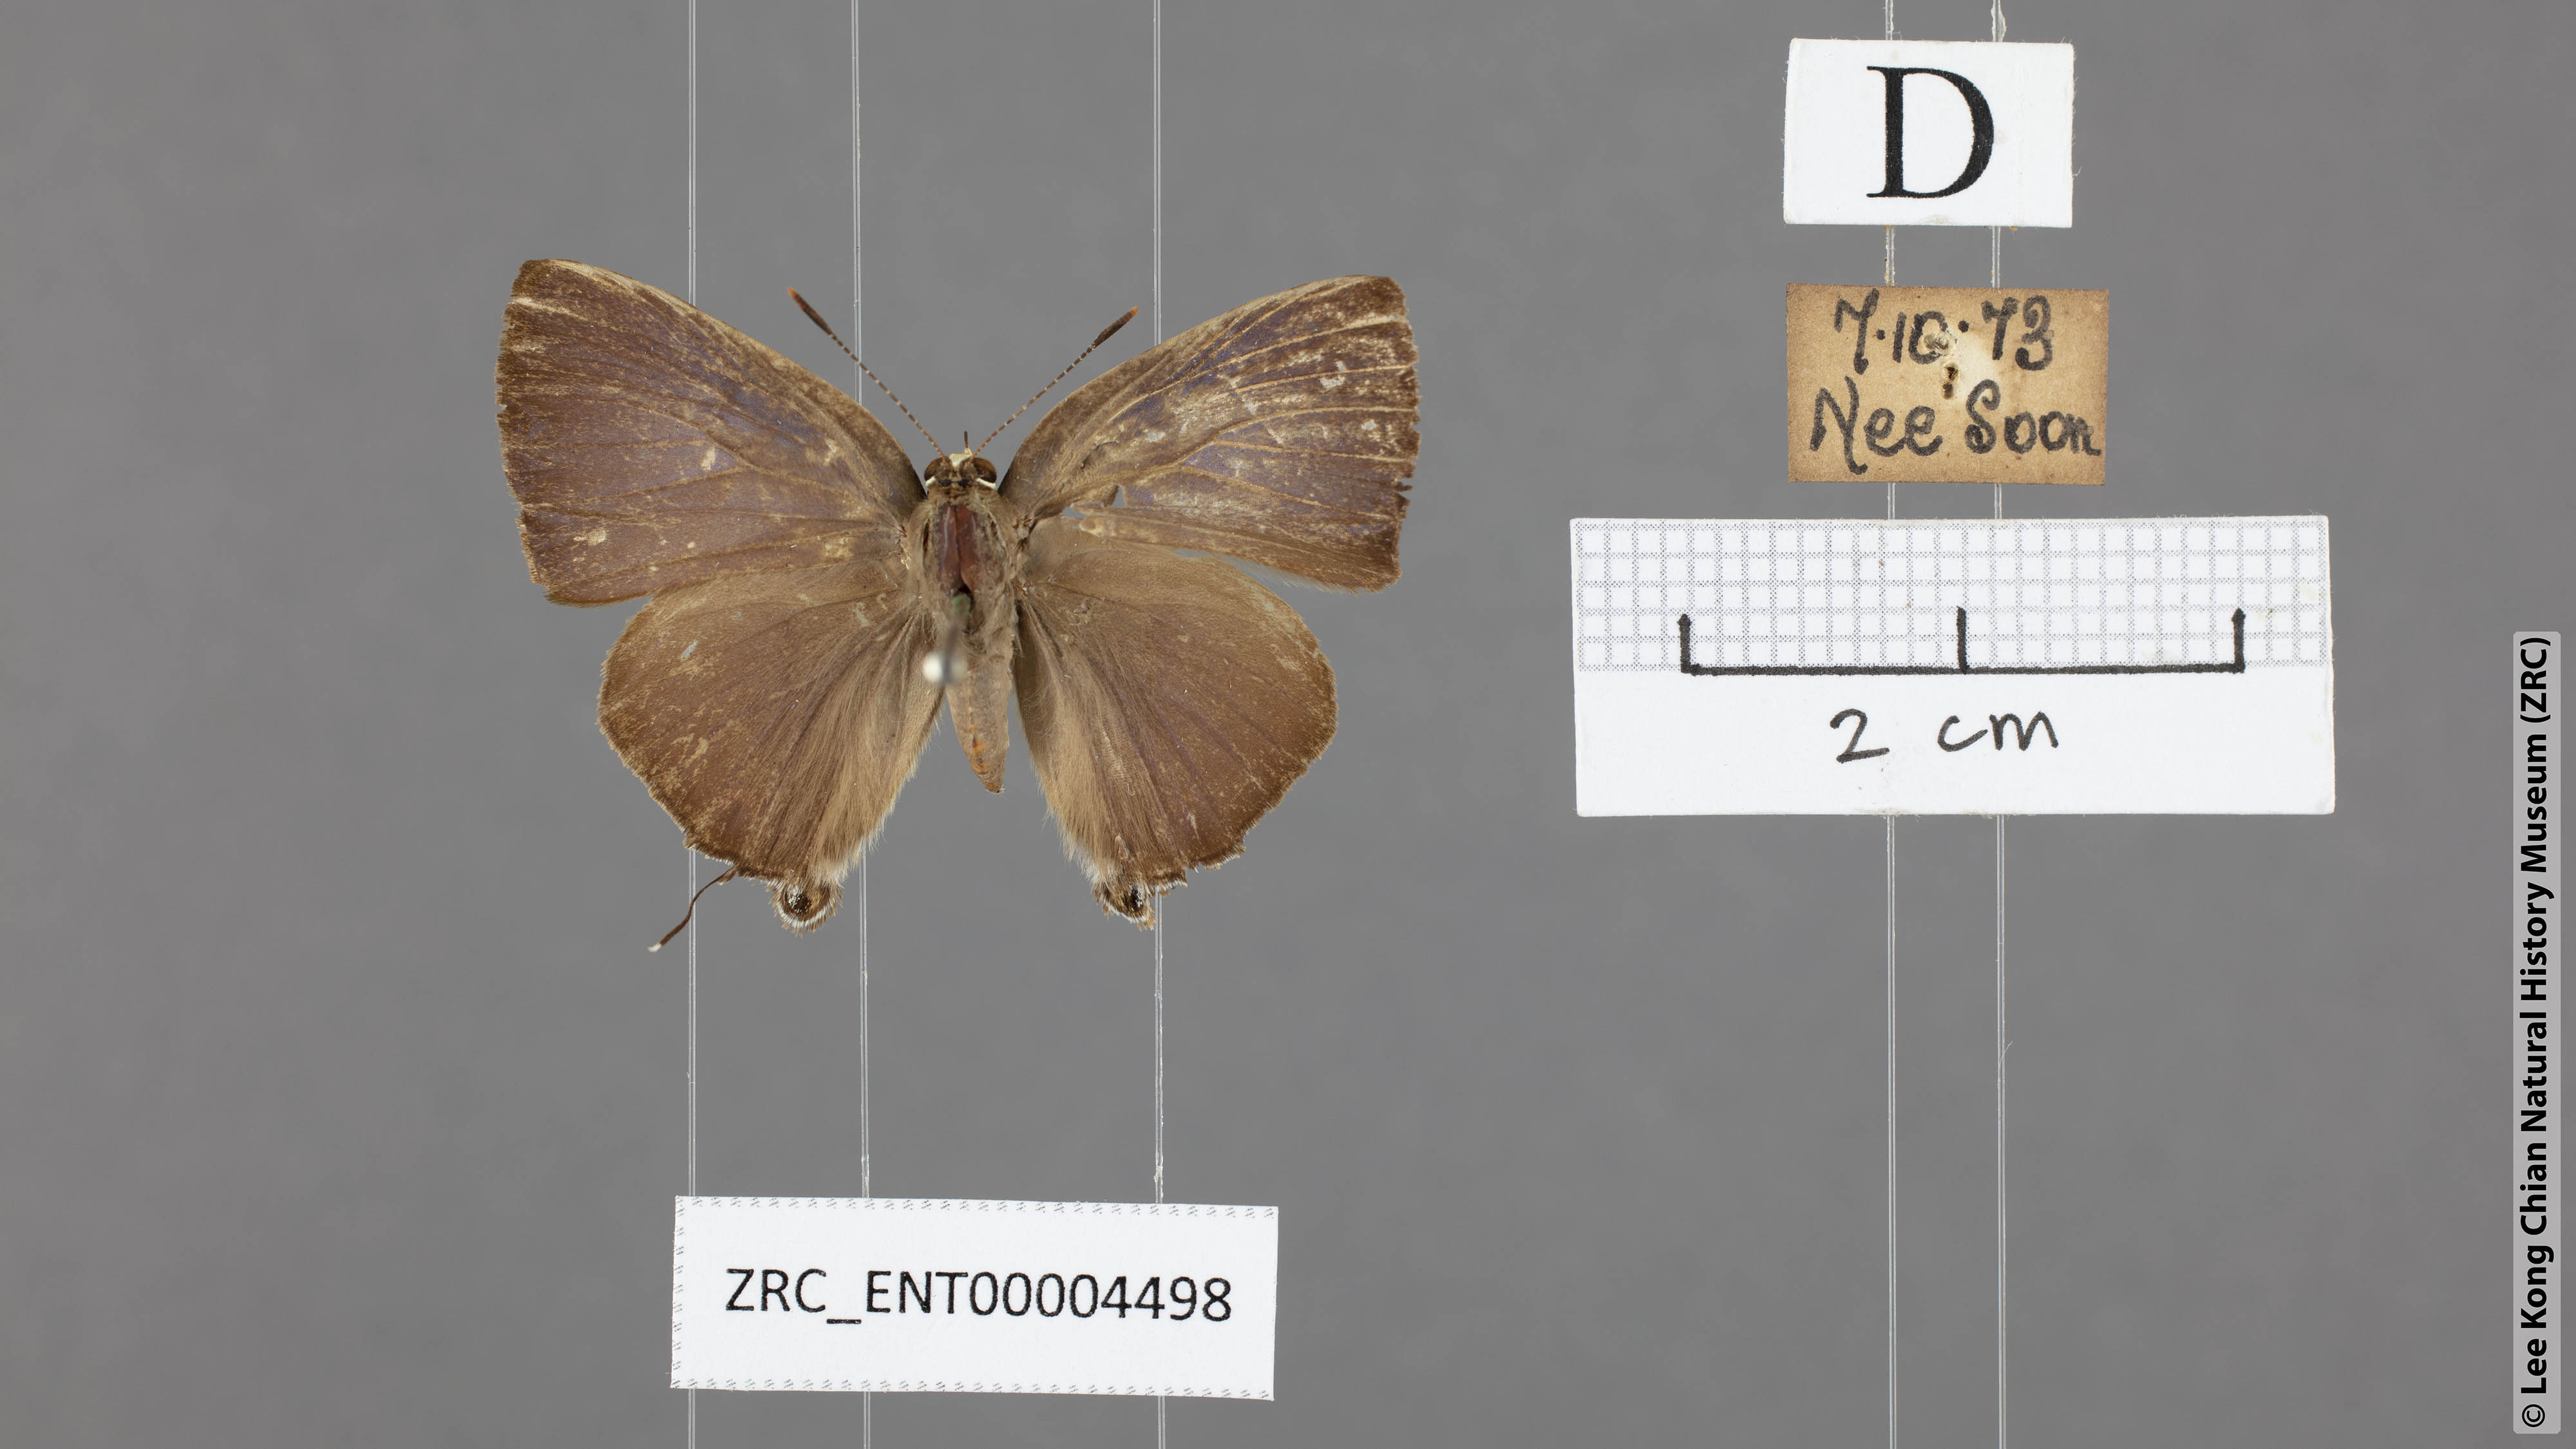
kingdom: Animalia
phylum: Arthropoda
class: Insecta
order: Lepidoptera
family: Lycaenidae
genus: Rapala
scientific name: Rapala manea
